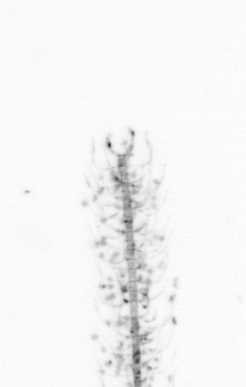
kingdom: Chromista
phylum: Ochrophyta
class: Bacillariophyceae
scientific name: Bacillariophyceae
